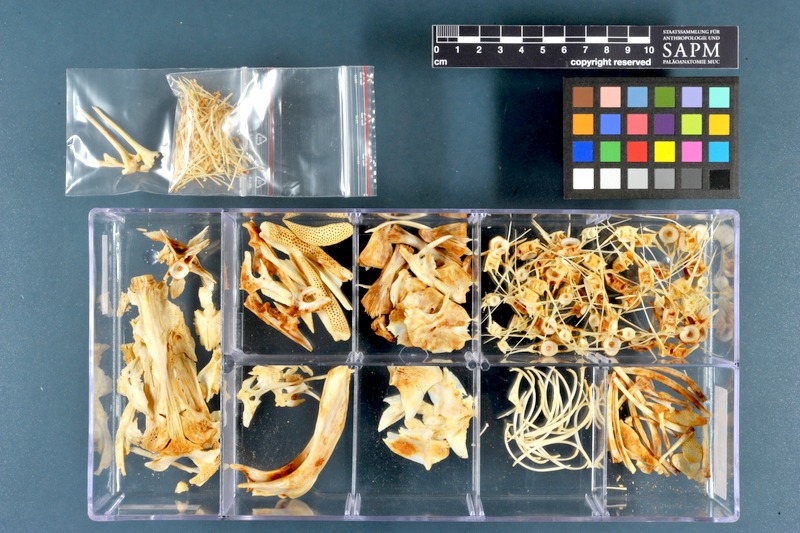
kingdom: Animalia
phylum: Chordata
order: Siluriformes
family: Siluridae
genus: Silurus
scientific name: Silurus triostegus
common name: Mesopotamian catfish
